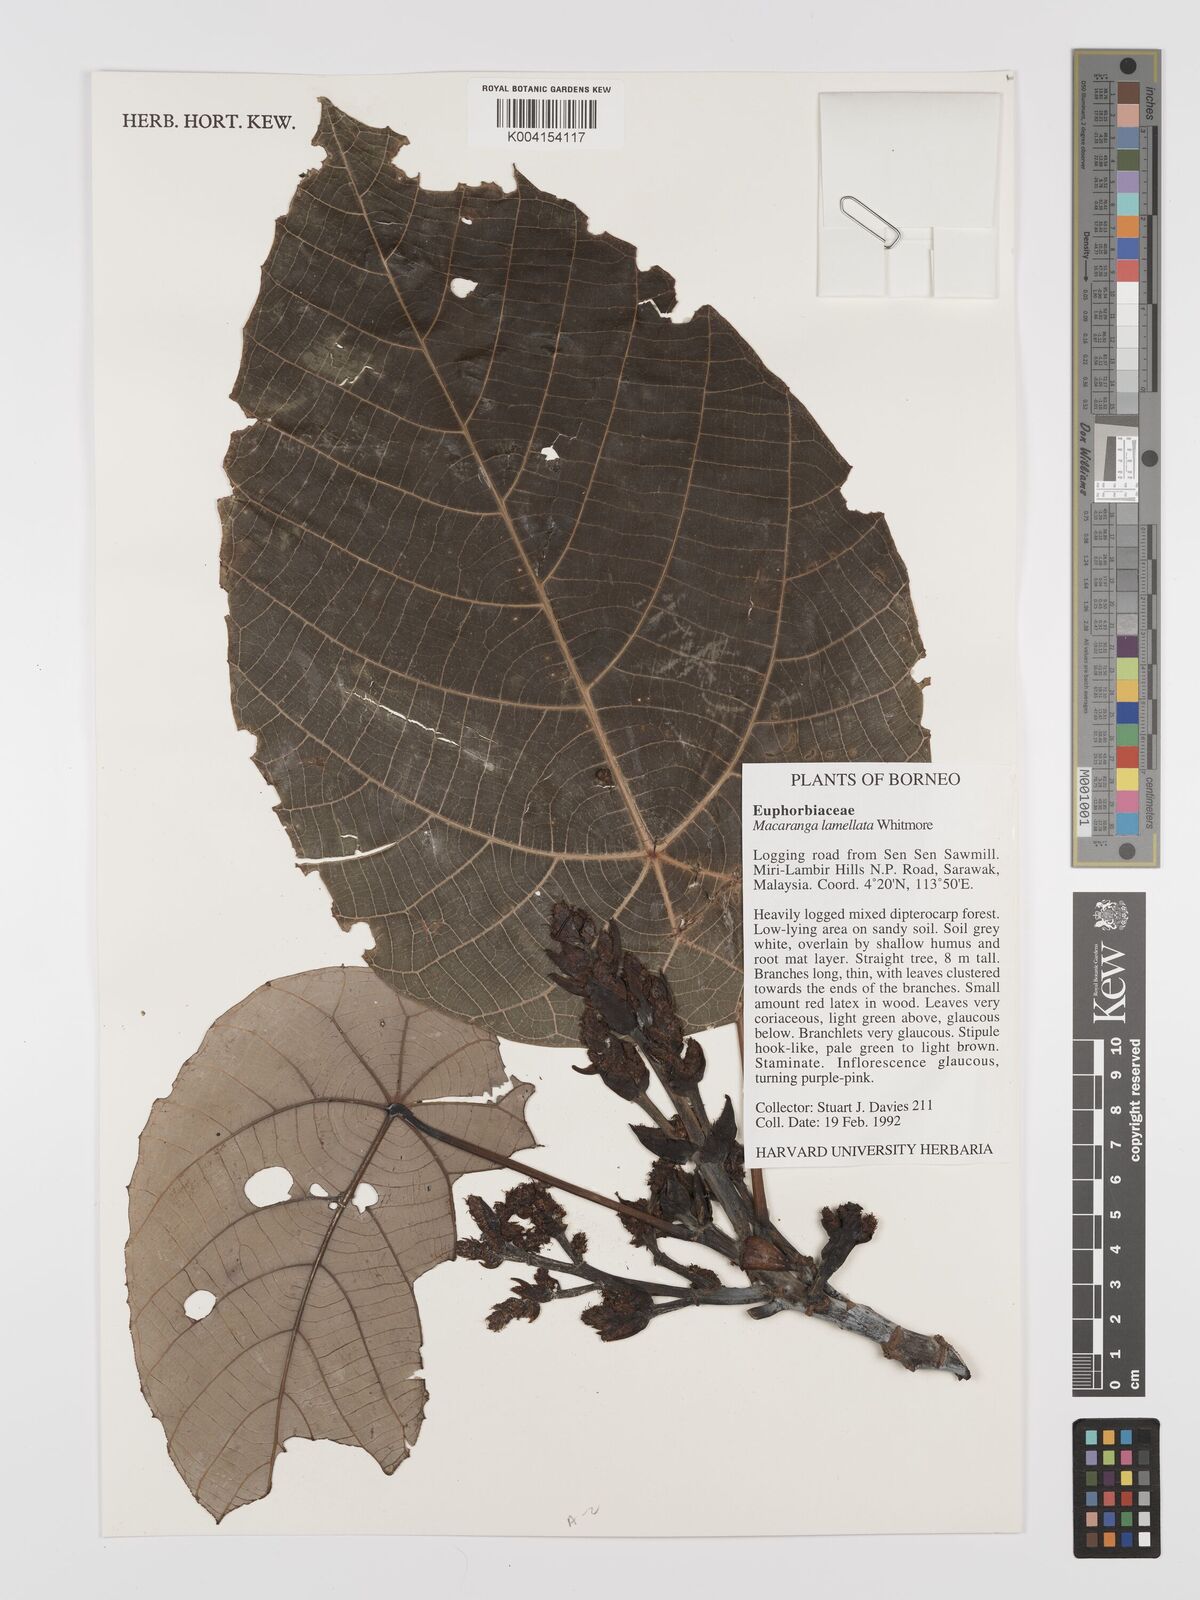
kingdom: Plantae
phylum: Tracheophyta
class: Magnoliopsida
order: Malpighiales
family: Euphorbiaceae
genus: Macaranga
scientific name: Macaranga lamellata
